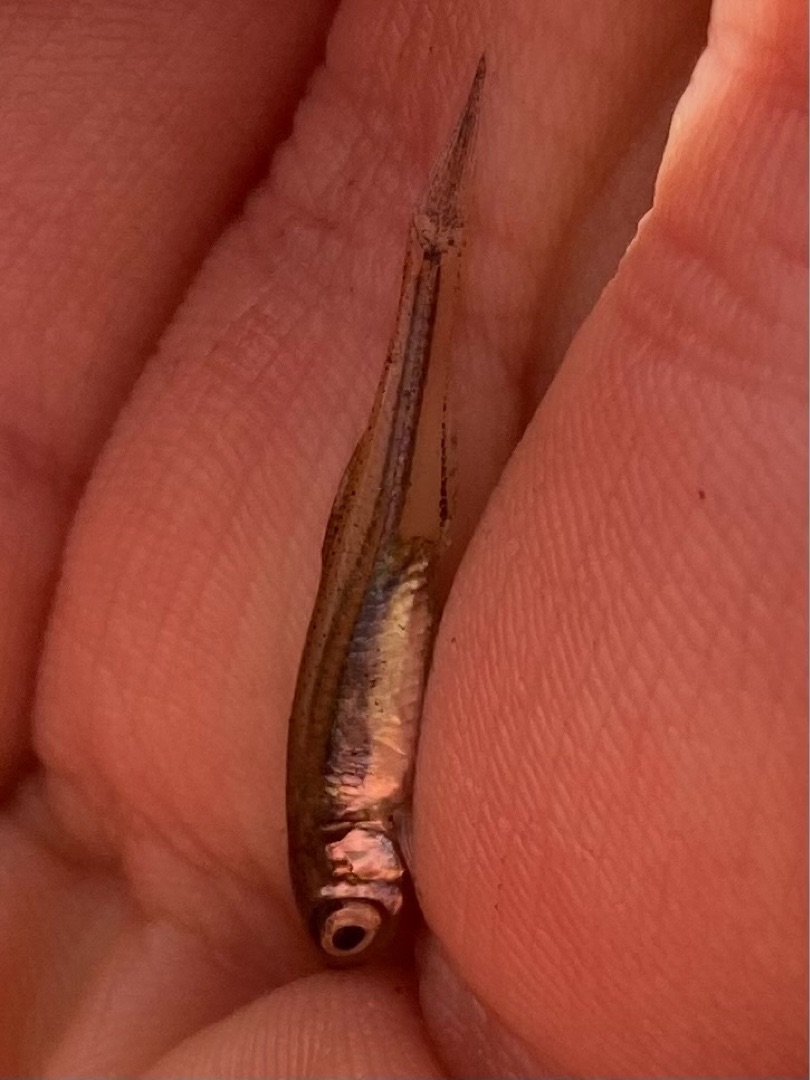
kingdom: Animalia
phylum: Chordata
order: Cypriniformes
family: Cyprinidae
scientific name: Cyprinidae
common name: Karpefamilien
